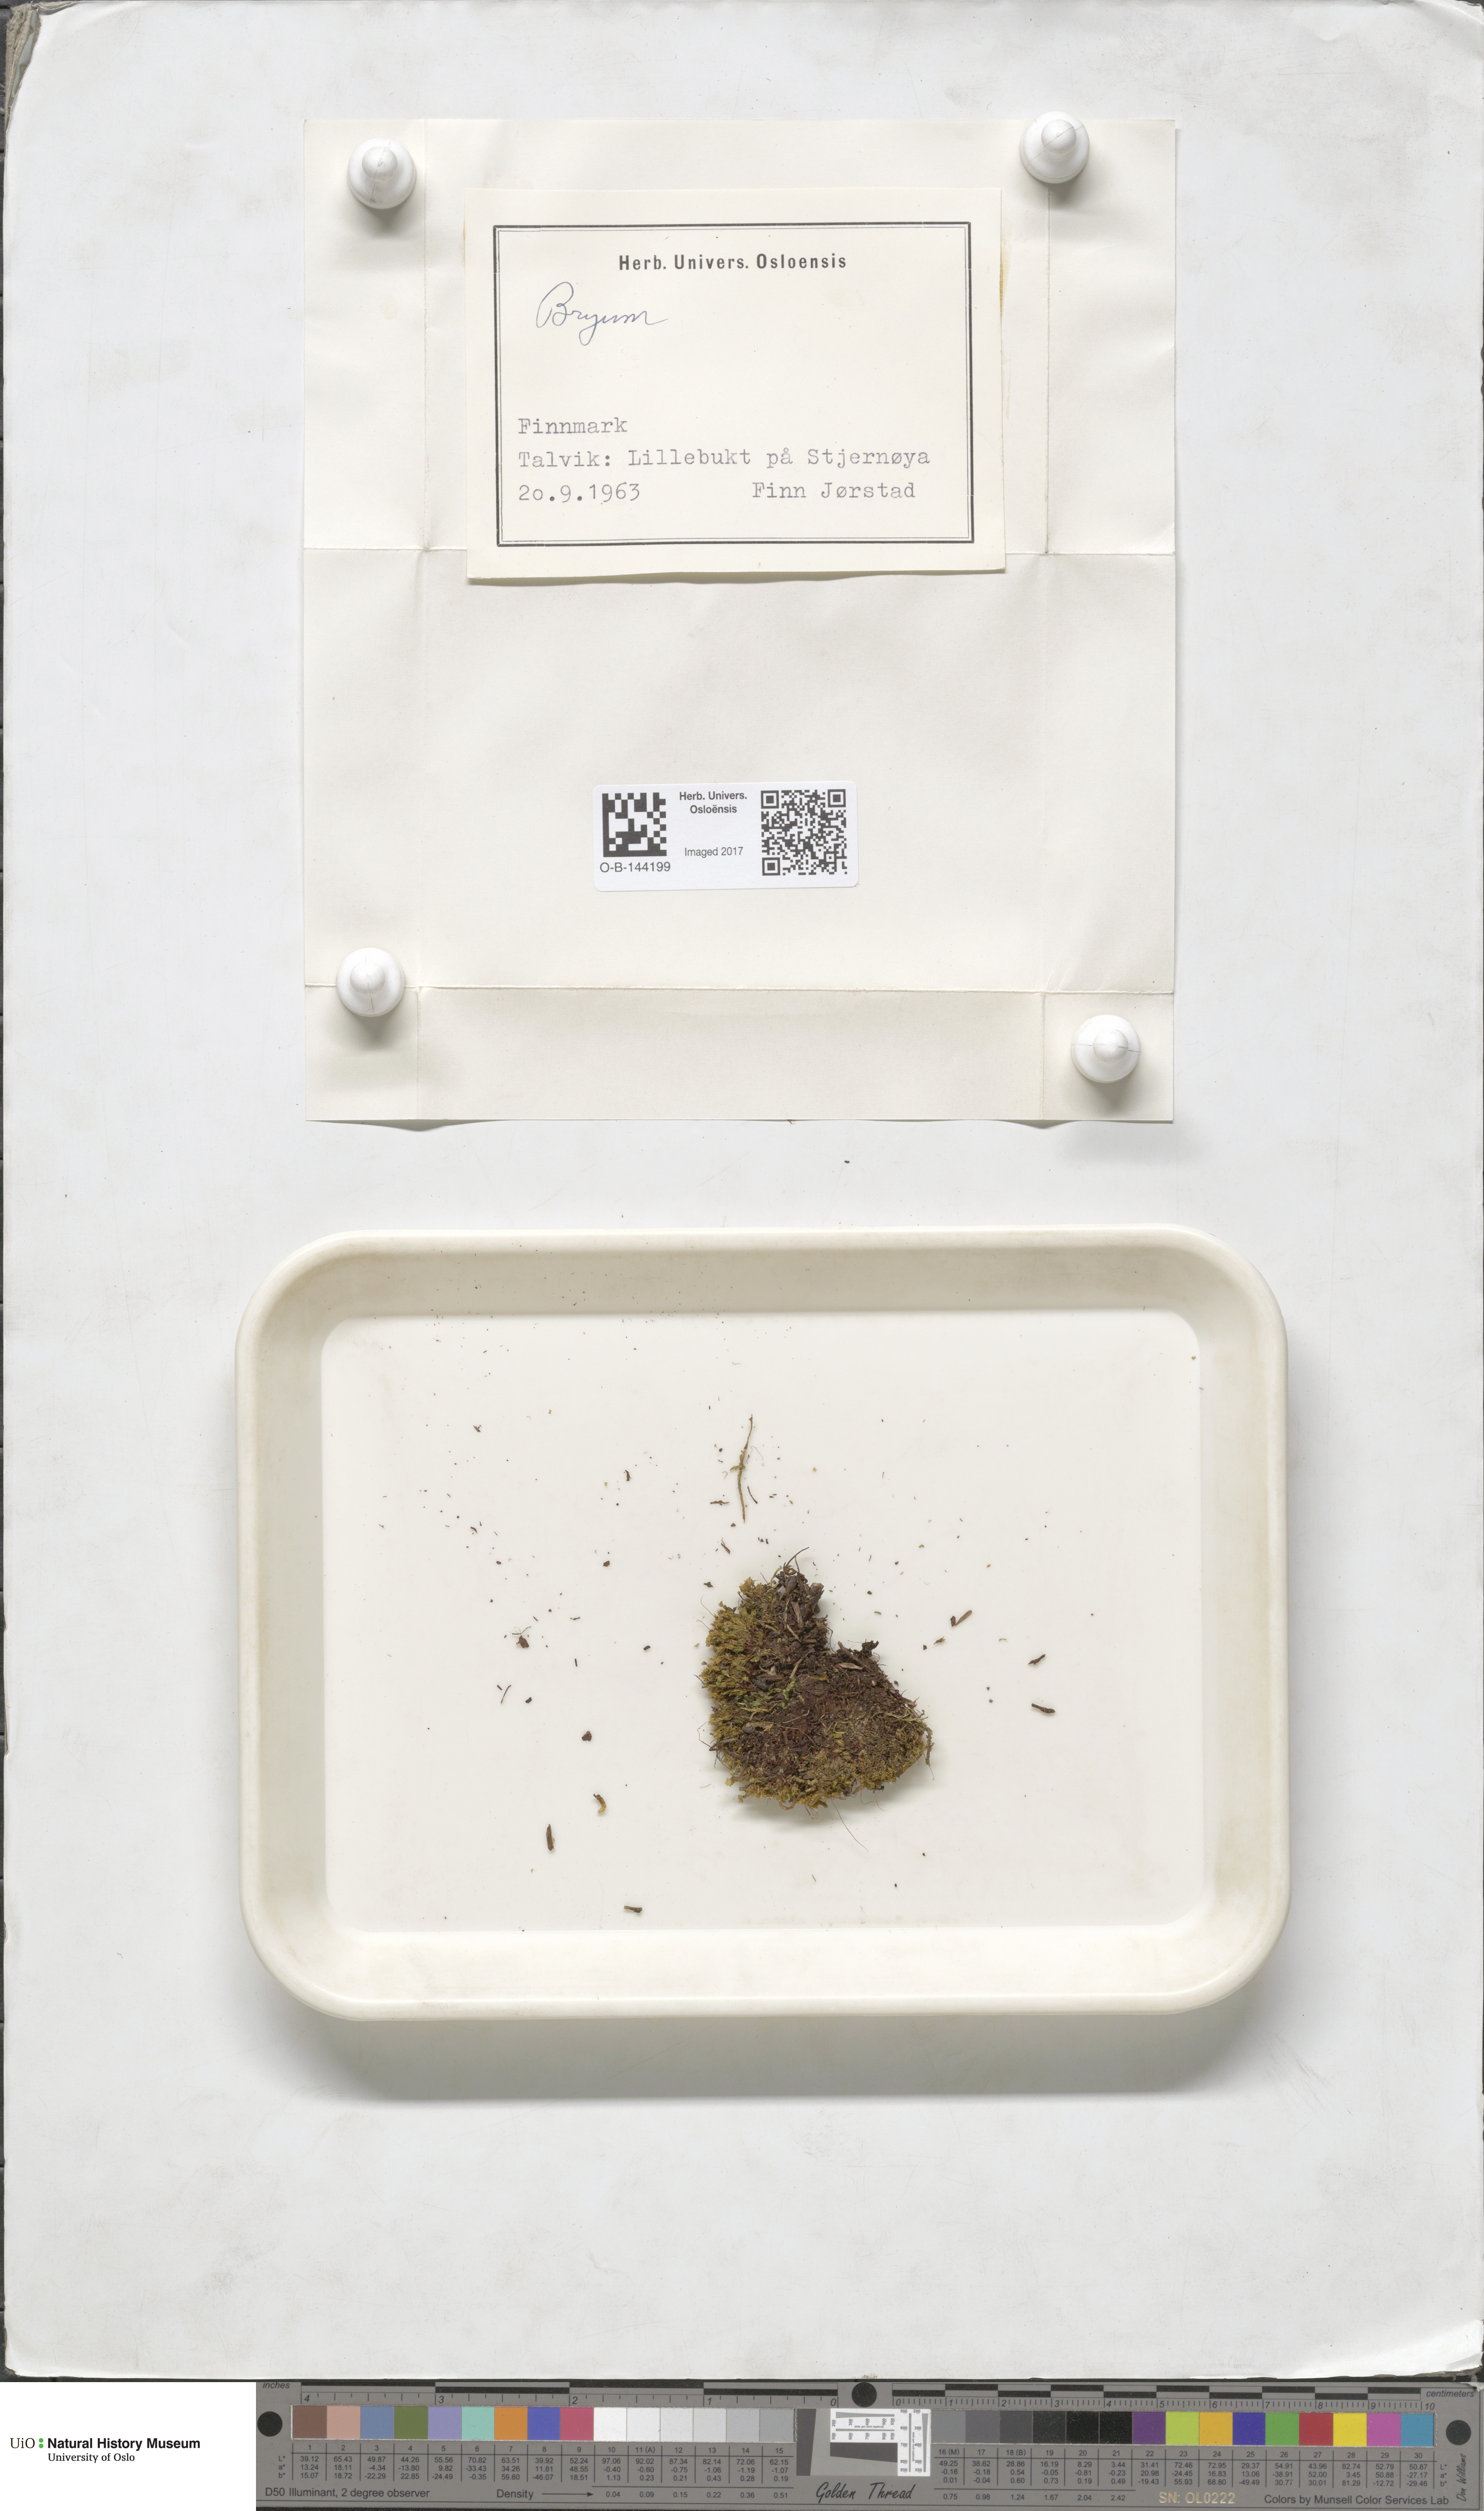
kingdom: Plantae
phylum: Bryophyta
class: Bryopsida
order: Bryales
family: Bryaceae
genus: Bryum
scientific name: Bryum
